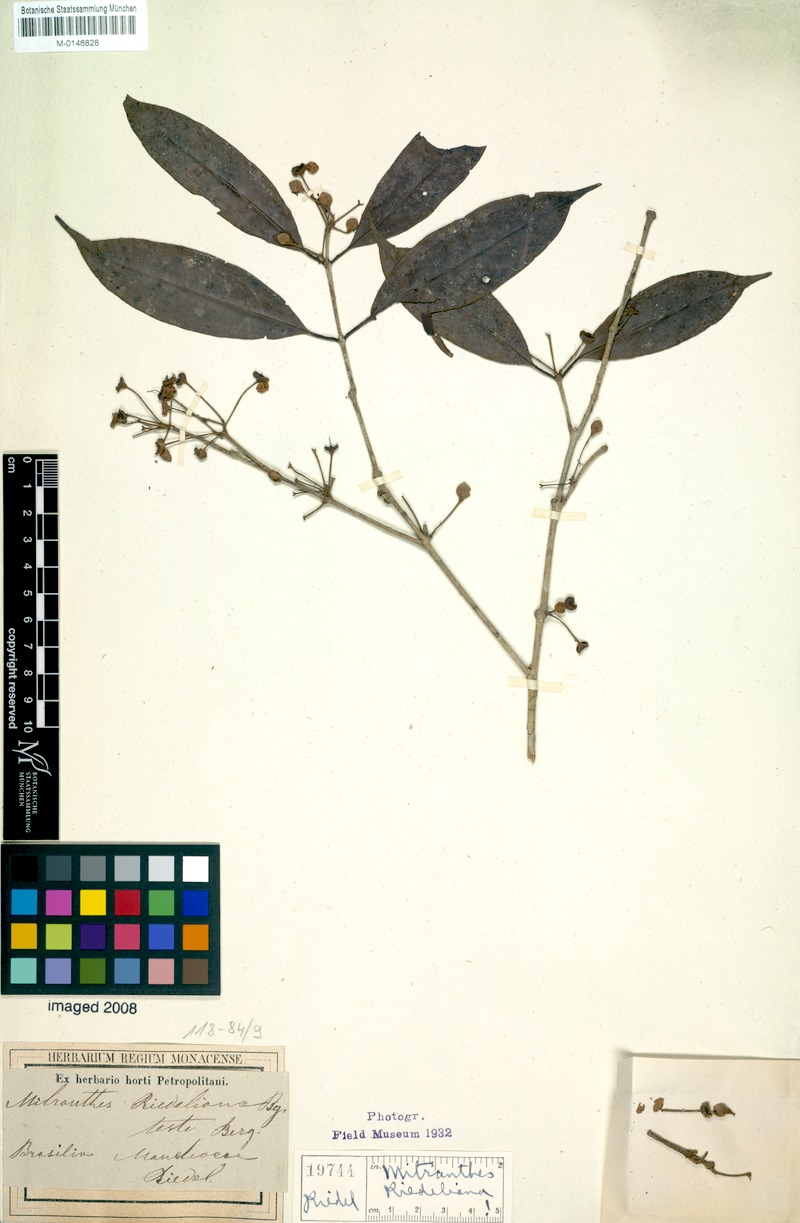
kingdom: Plantae
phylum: Tracheophyta
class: Magnoliopsida
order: Myrtales
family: Myrtaceae
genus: Eugenia
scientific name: Eugenia neoriedeliana
